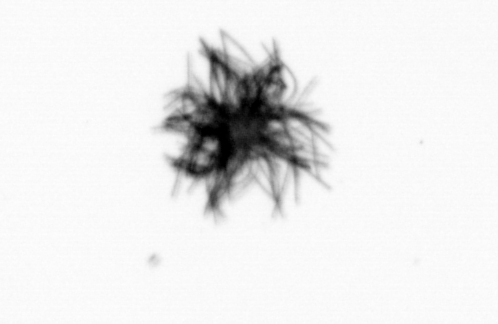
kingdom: Bacteria
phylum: Cyanobacteria
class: Cyanobacteriia
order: Cyanobacteriales
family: Microcoleaceae
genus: Trichodesmium
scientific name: Trichodesmium
